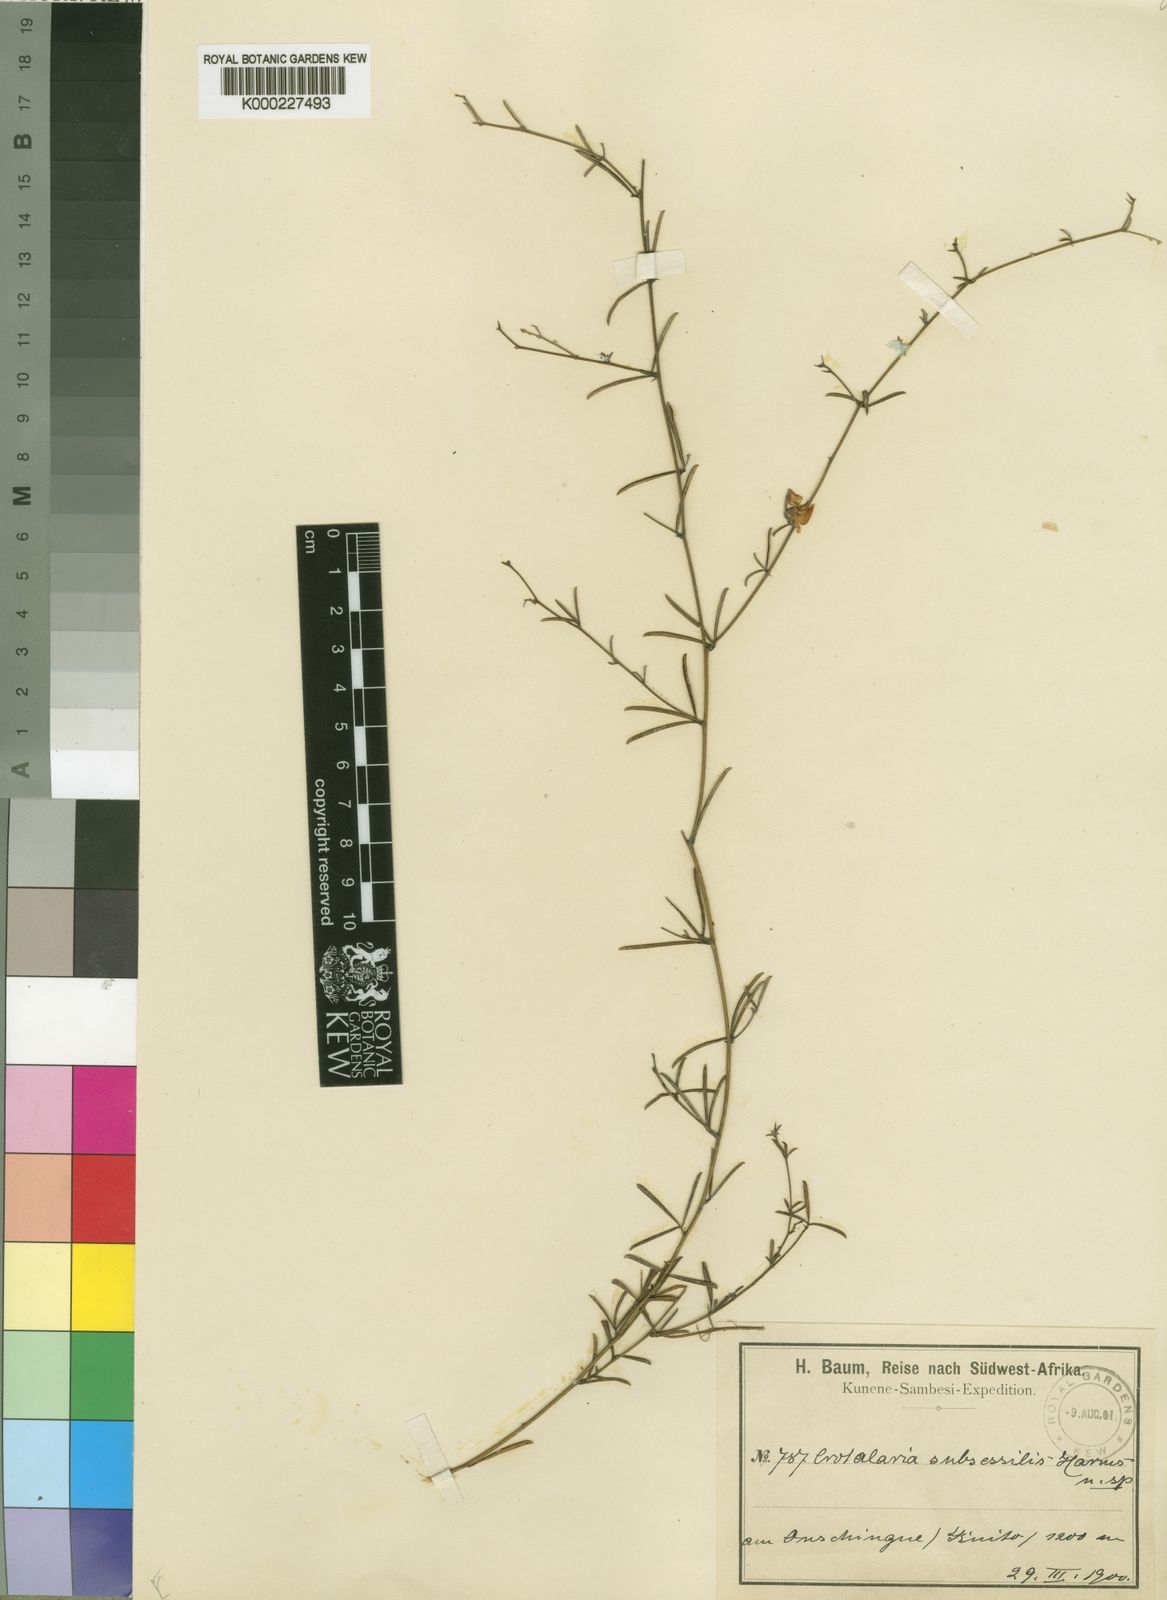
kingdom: Plantae
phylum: Tracheophyta
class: Magnoliopsida
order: Fabales
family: Fabaceae
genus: Crotalaria
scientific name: Crotalaria subsessilis
